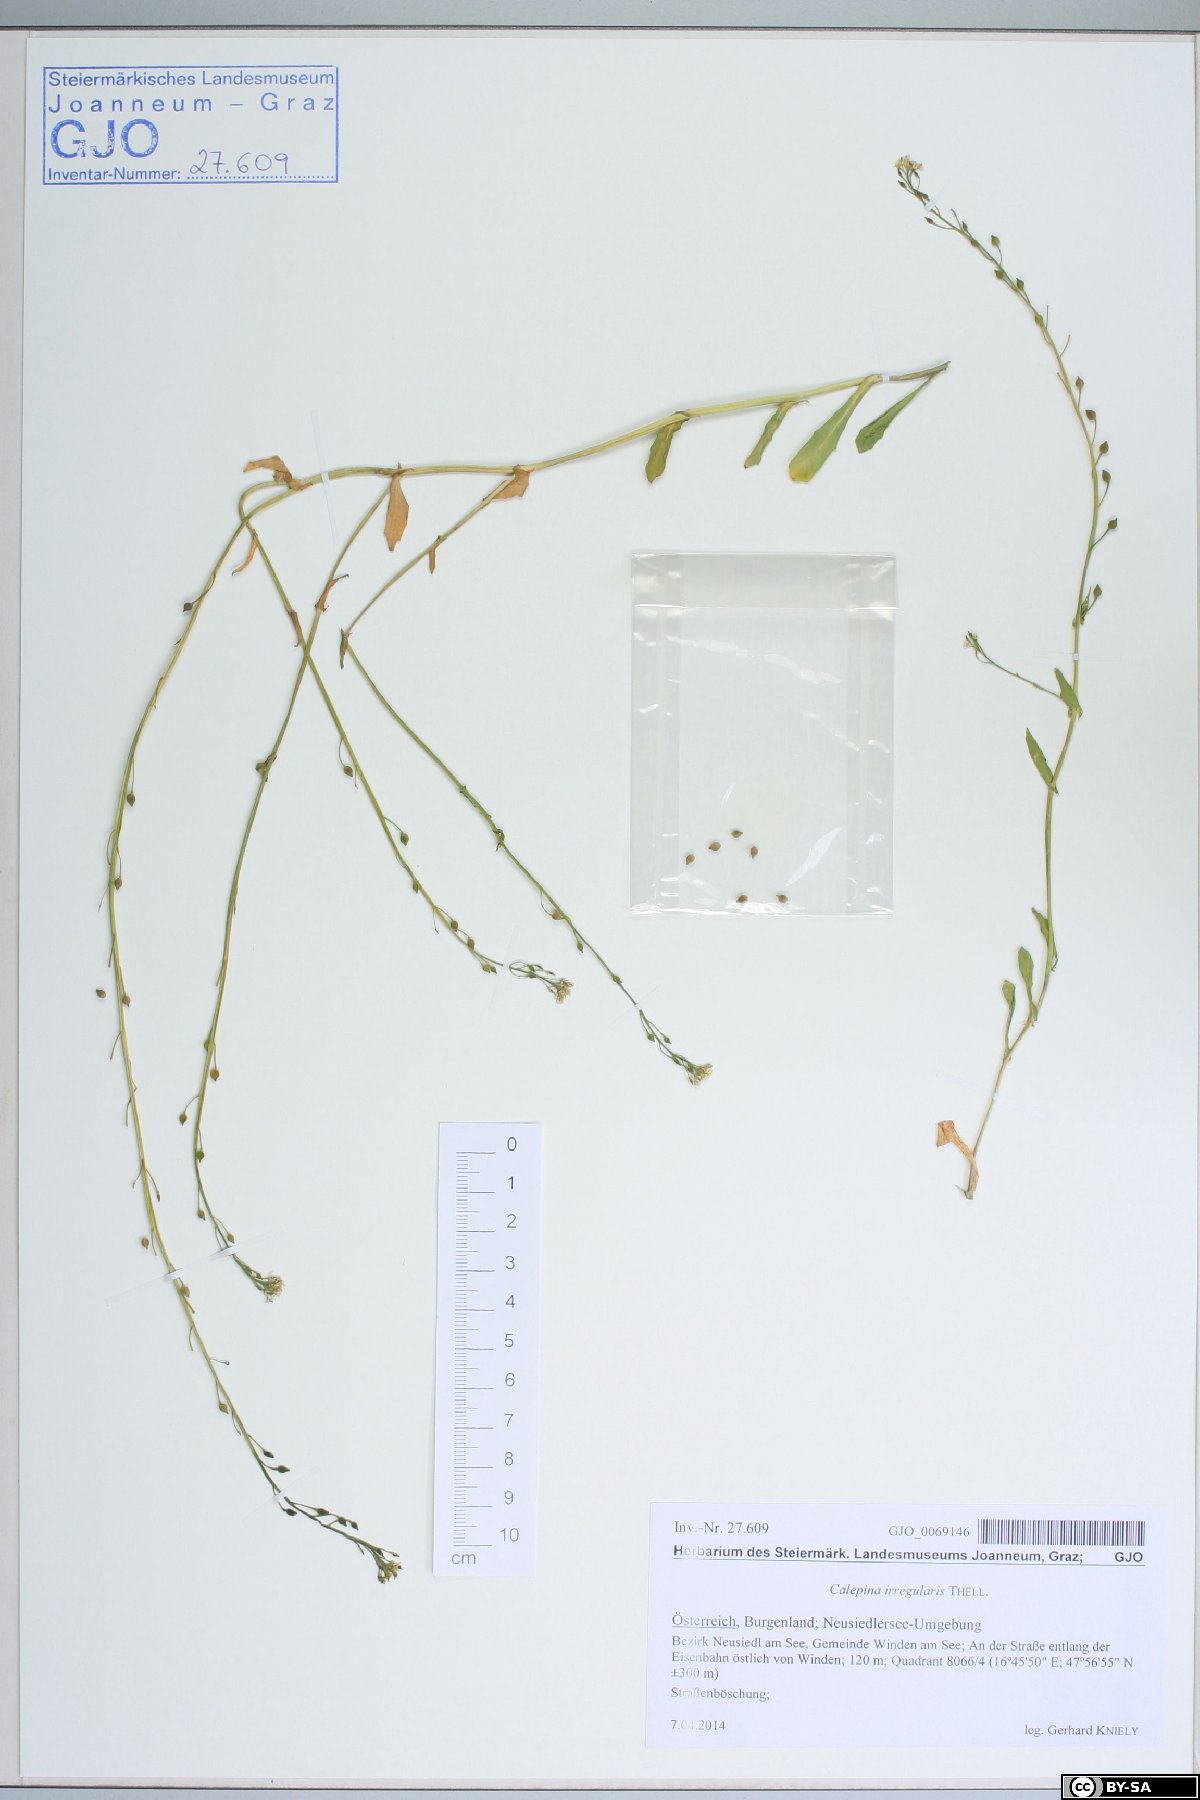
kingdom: Plantae
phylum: Tracheophyta
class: Magnoliopsida
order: Brassicales
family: Brassicaceae
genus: Calepina
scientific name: Calepina irregularis
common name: White ballmustard
